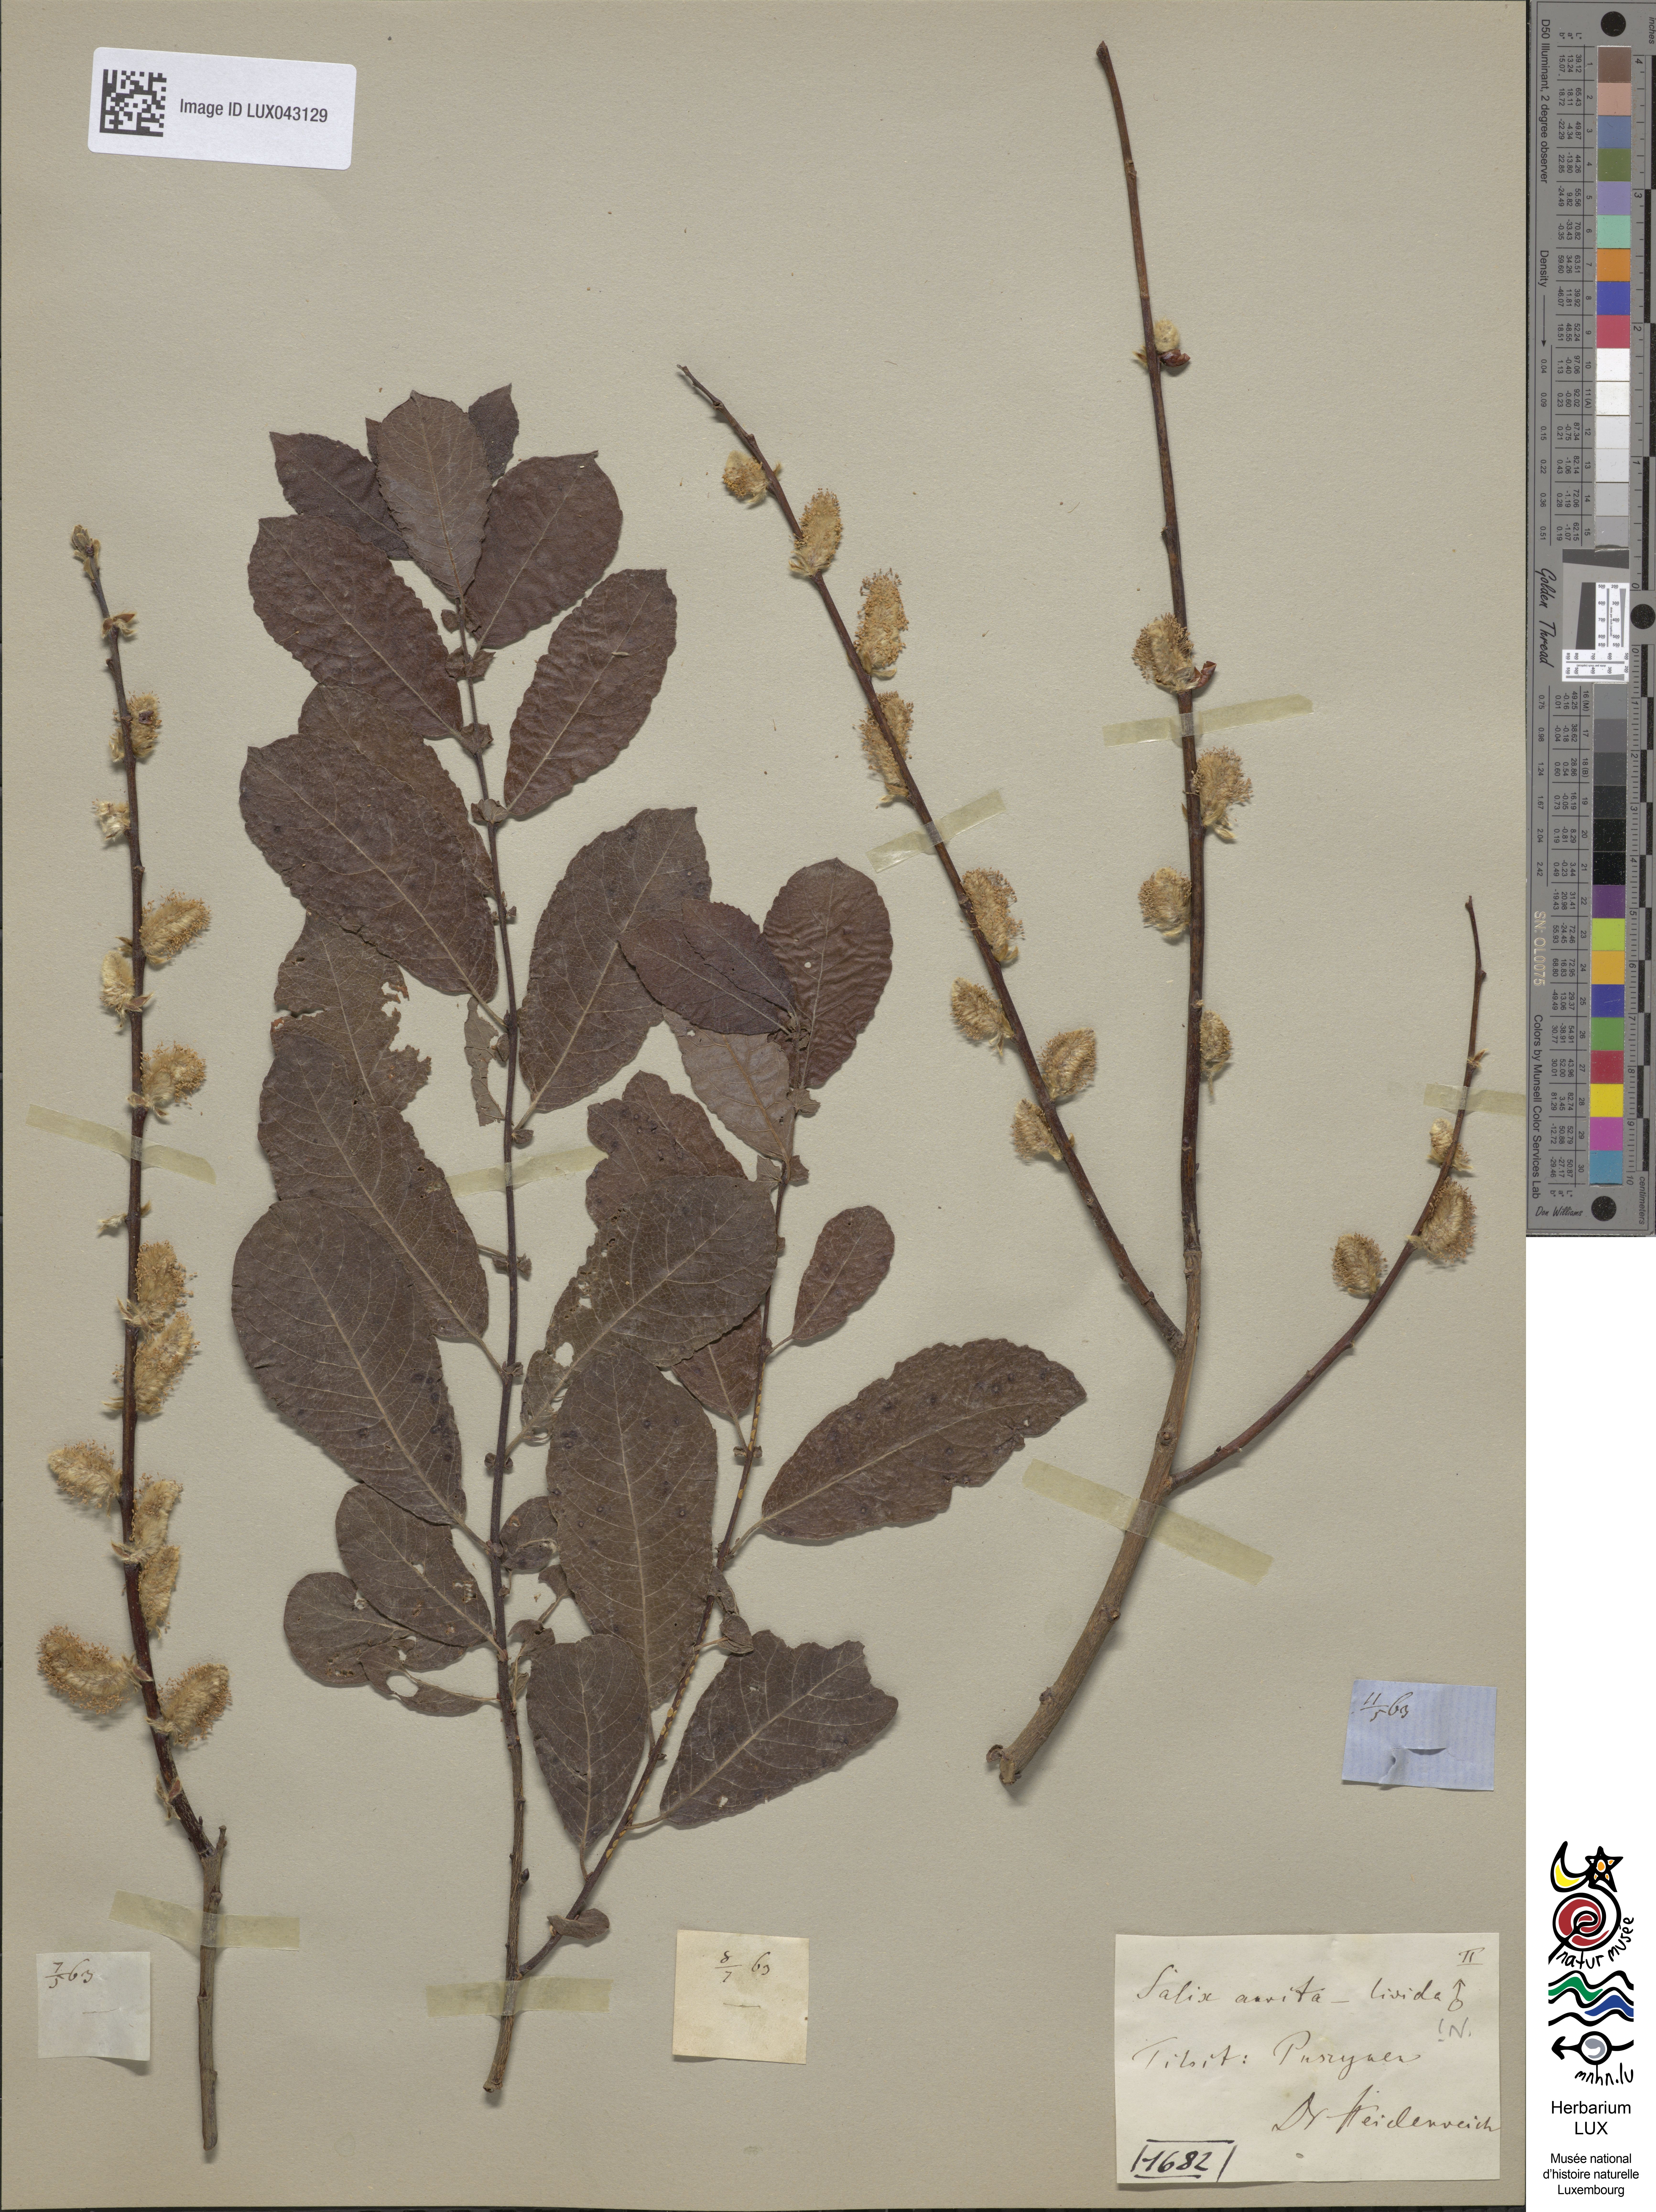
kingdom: Plantae
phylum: Tracheophyta
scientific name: Tracheophyta
